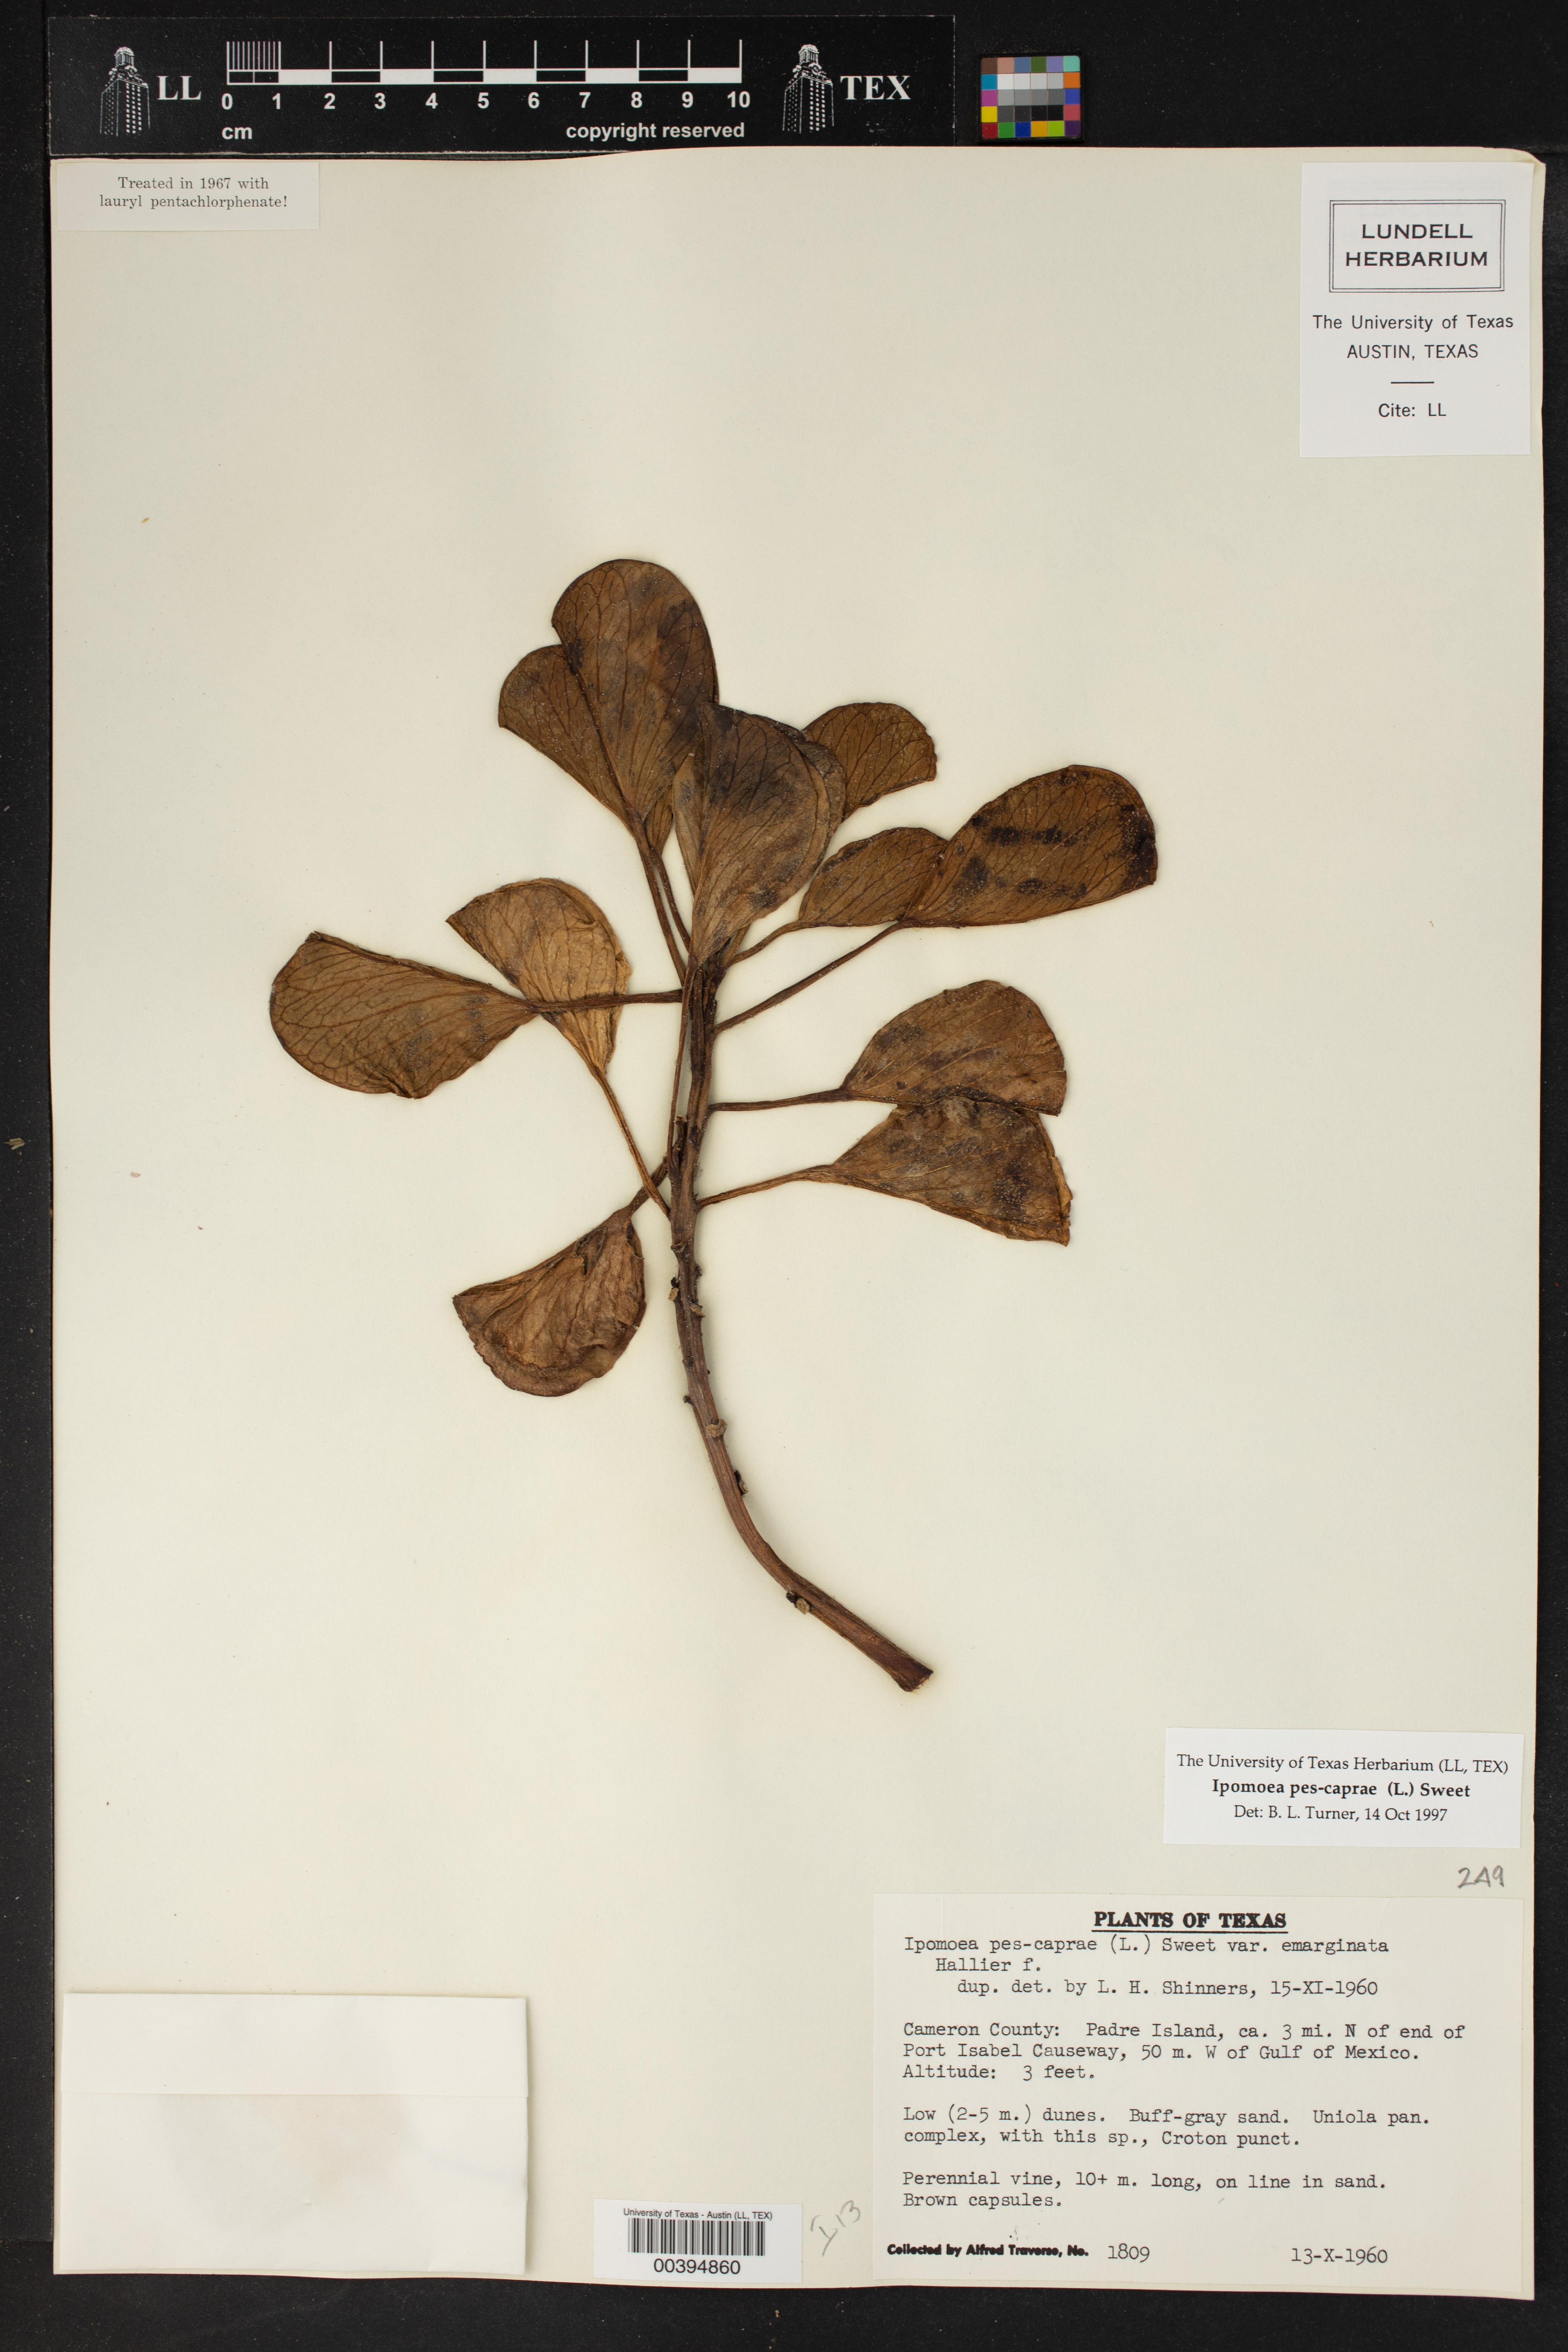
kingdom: Plantae
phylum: Tracheophyta
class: Magnoliopsida
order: Solanales
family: Convolvulaceae
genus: Ipomoea
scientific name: Ipomoea pes-caprae
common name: Beach morning glory
